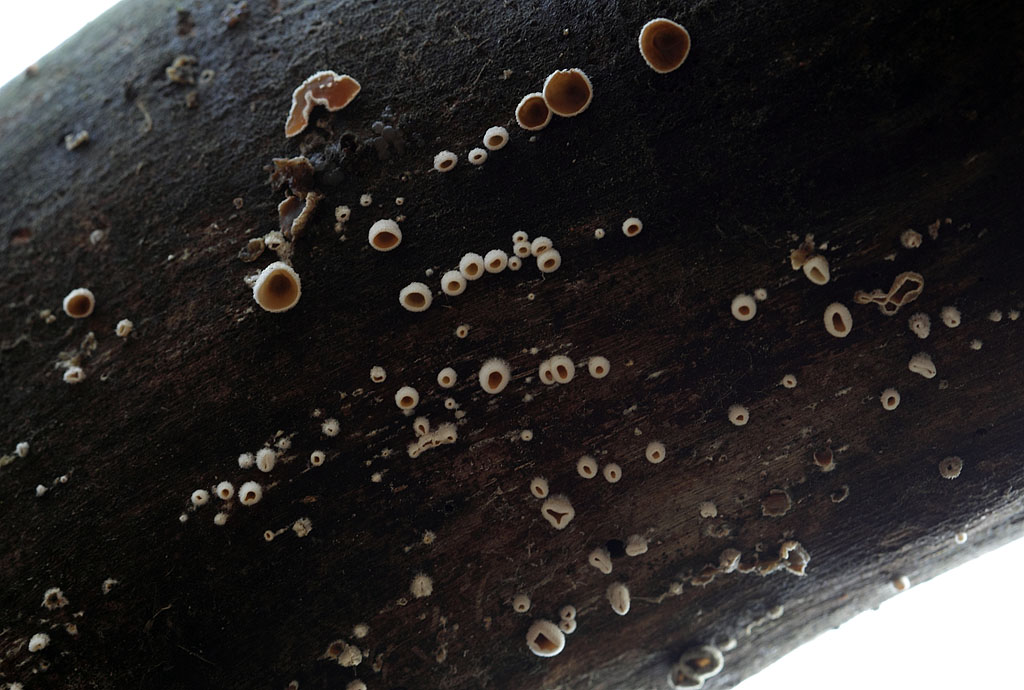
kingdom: Fungi
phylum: Basidiomycota
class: Agaricomycetes
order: Agaricales
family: Schizophyllaceae
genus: Schizophyllum
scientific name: Schizophyllum amplum
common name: poppel-hængeøre
